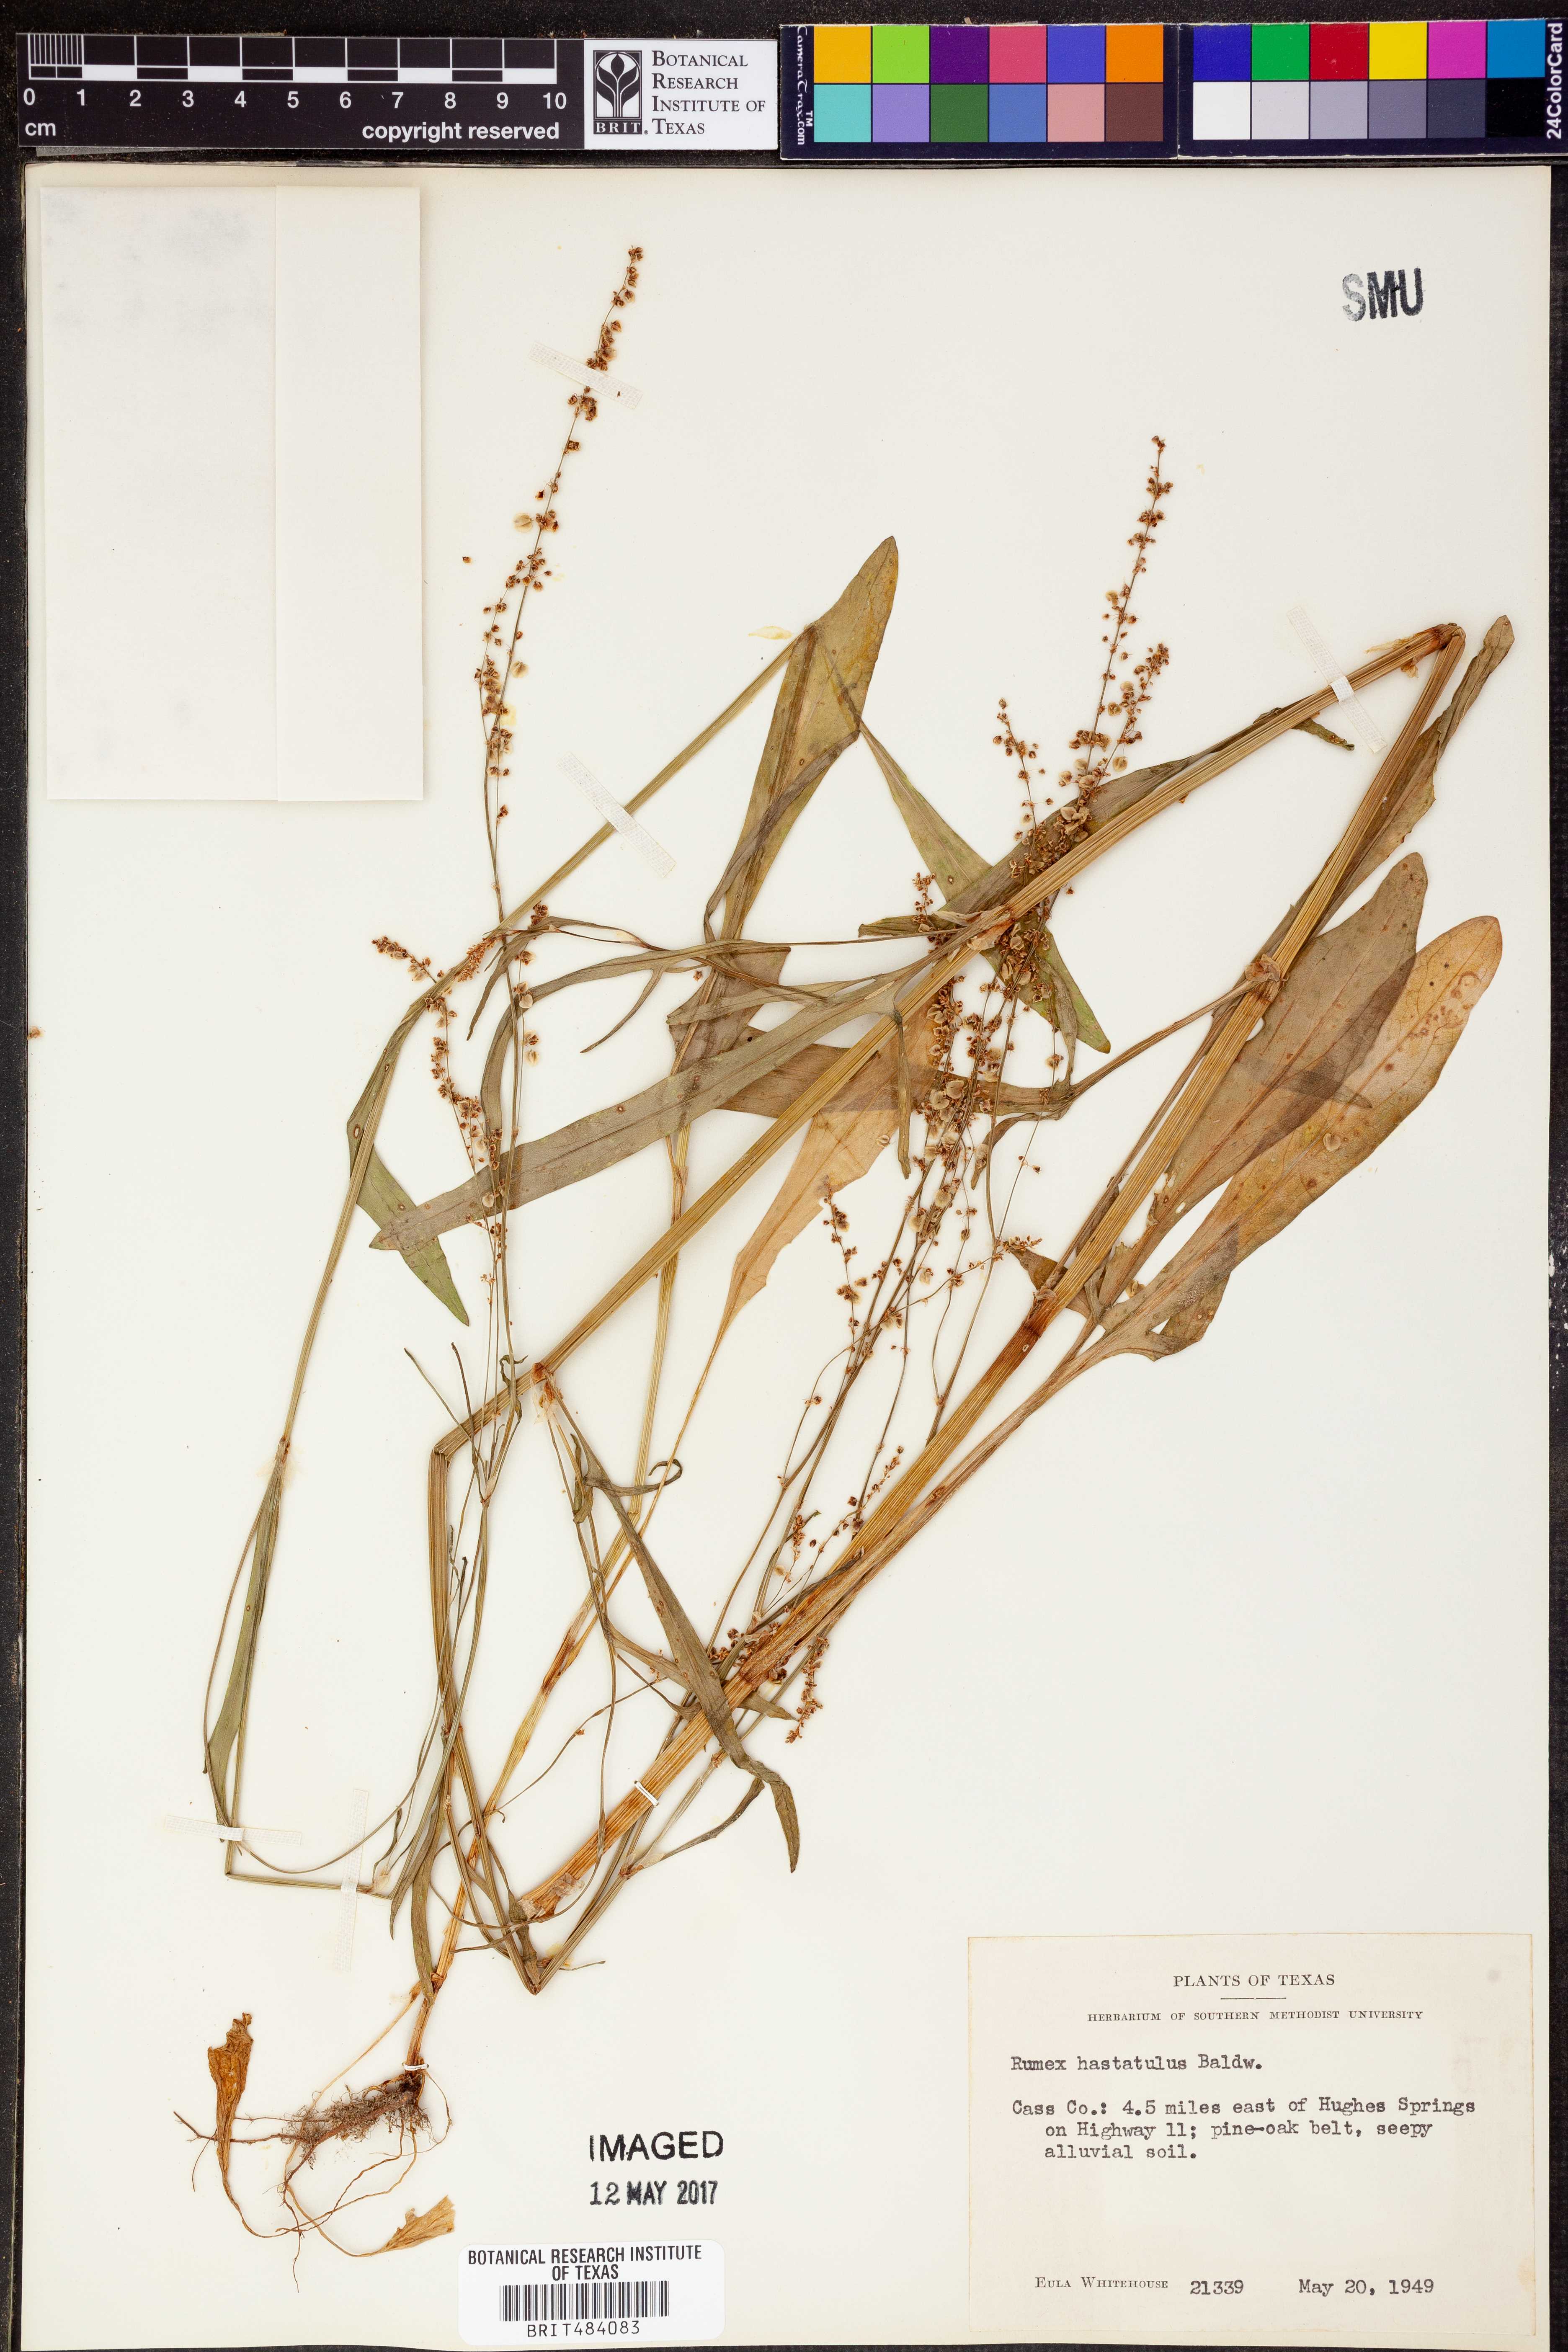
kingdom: Plantae
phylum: Tracheophyta
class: Magnoliopsida
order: Caryophyllales
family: Polygonaceae
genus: Rumex
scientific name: Rumex hastatulus
